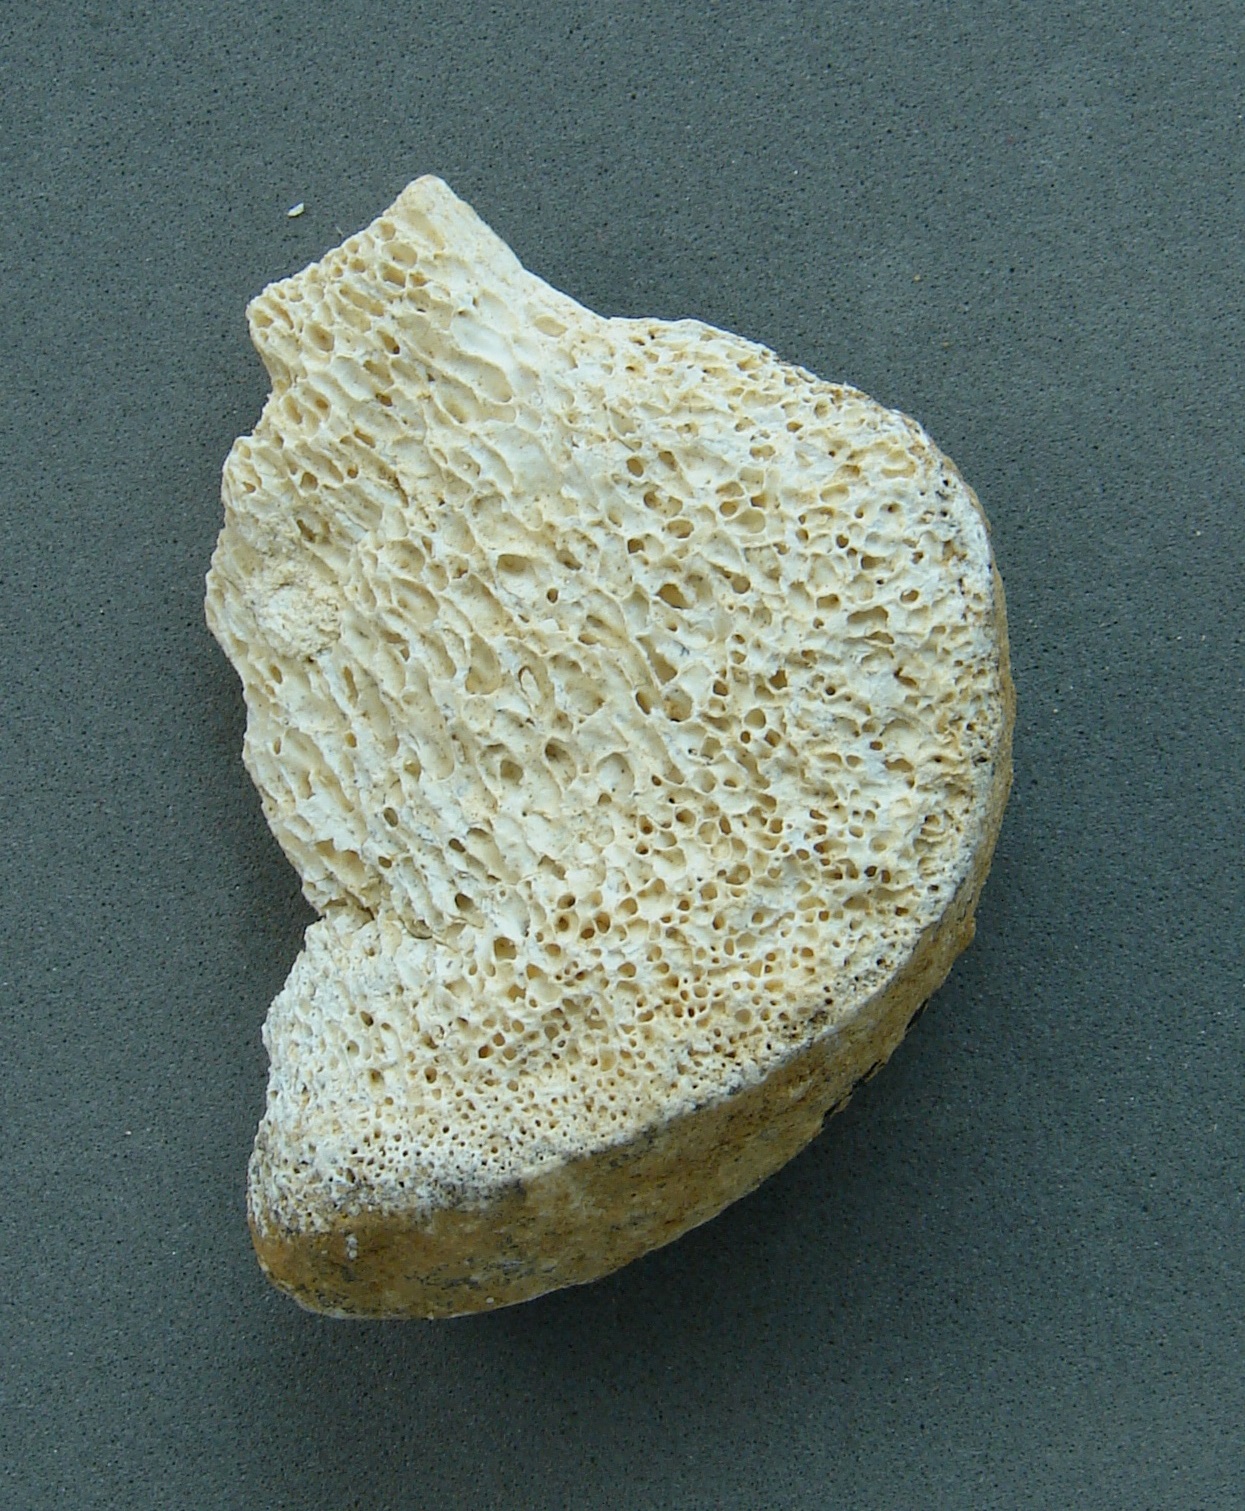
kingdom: Animalia
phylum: Chordata
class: Mammalia
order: Artiodactyla
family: Bovidae
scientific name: Bovidae
